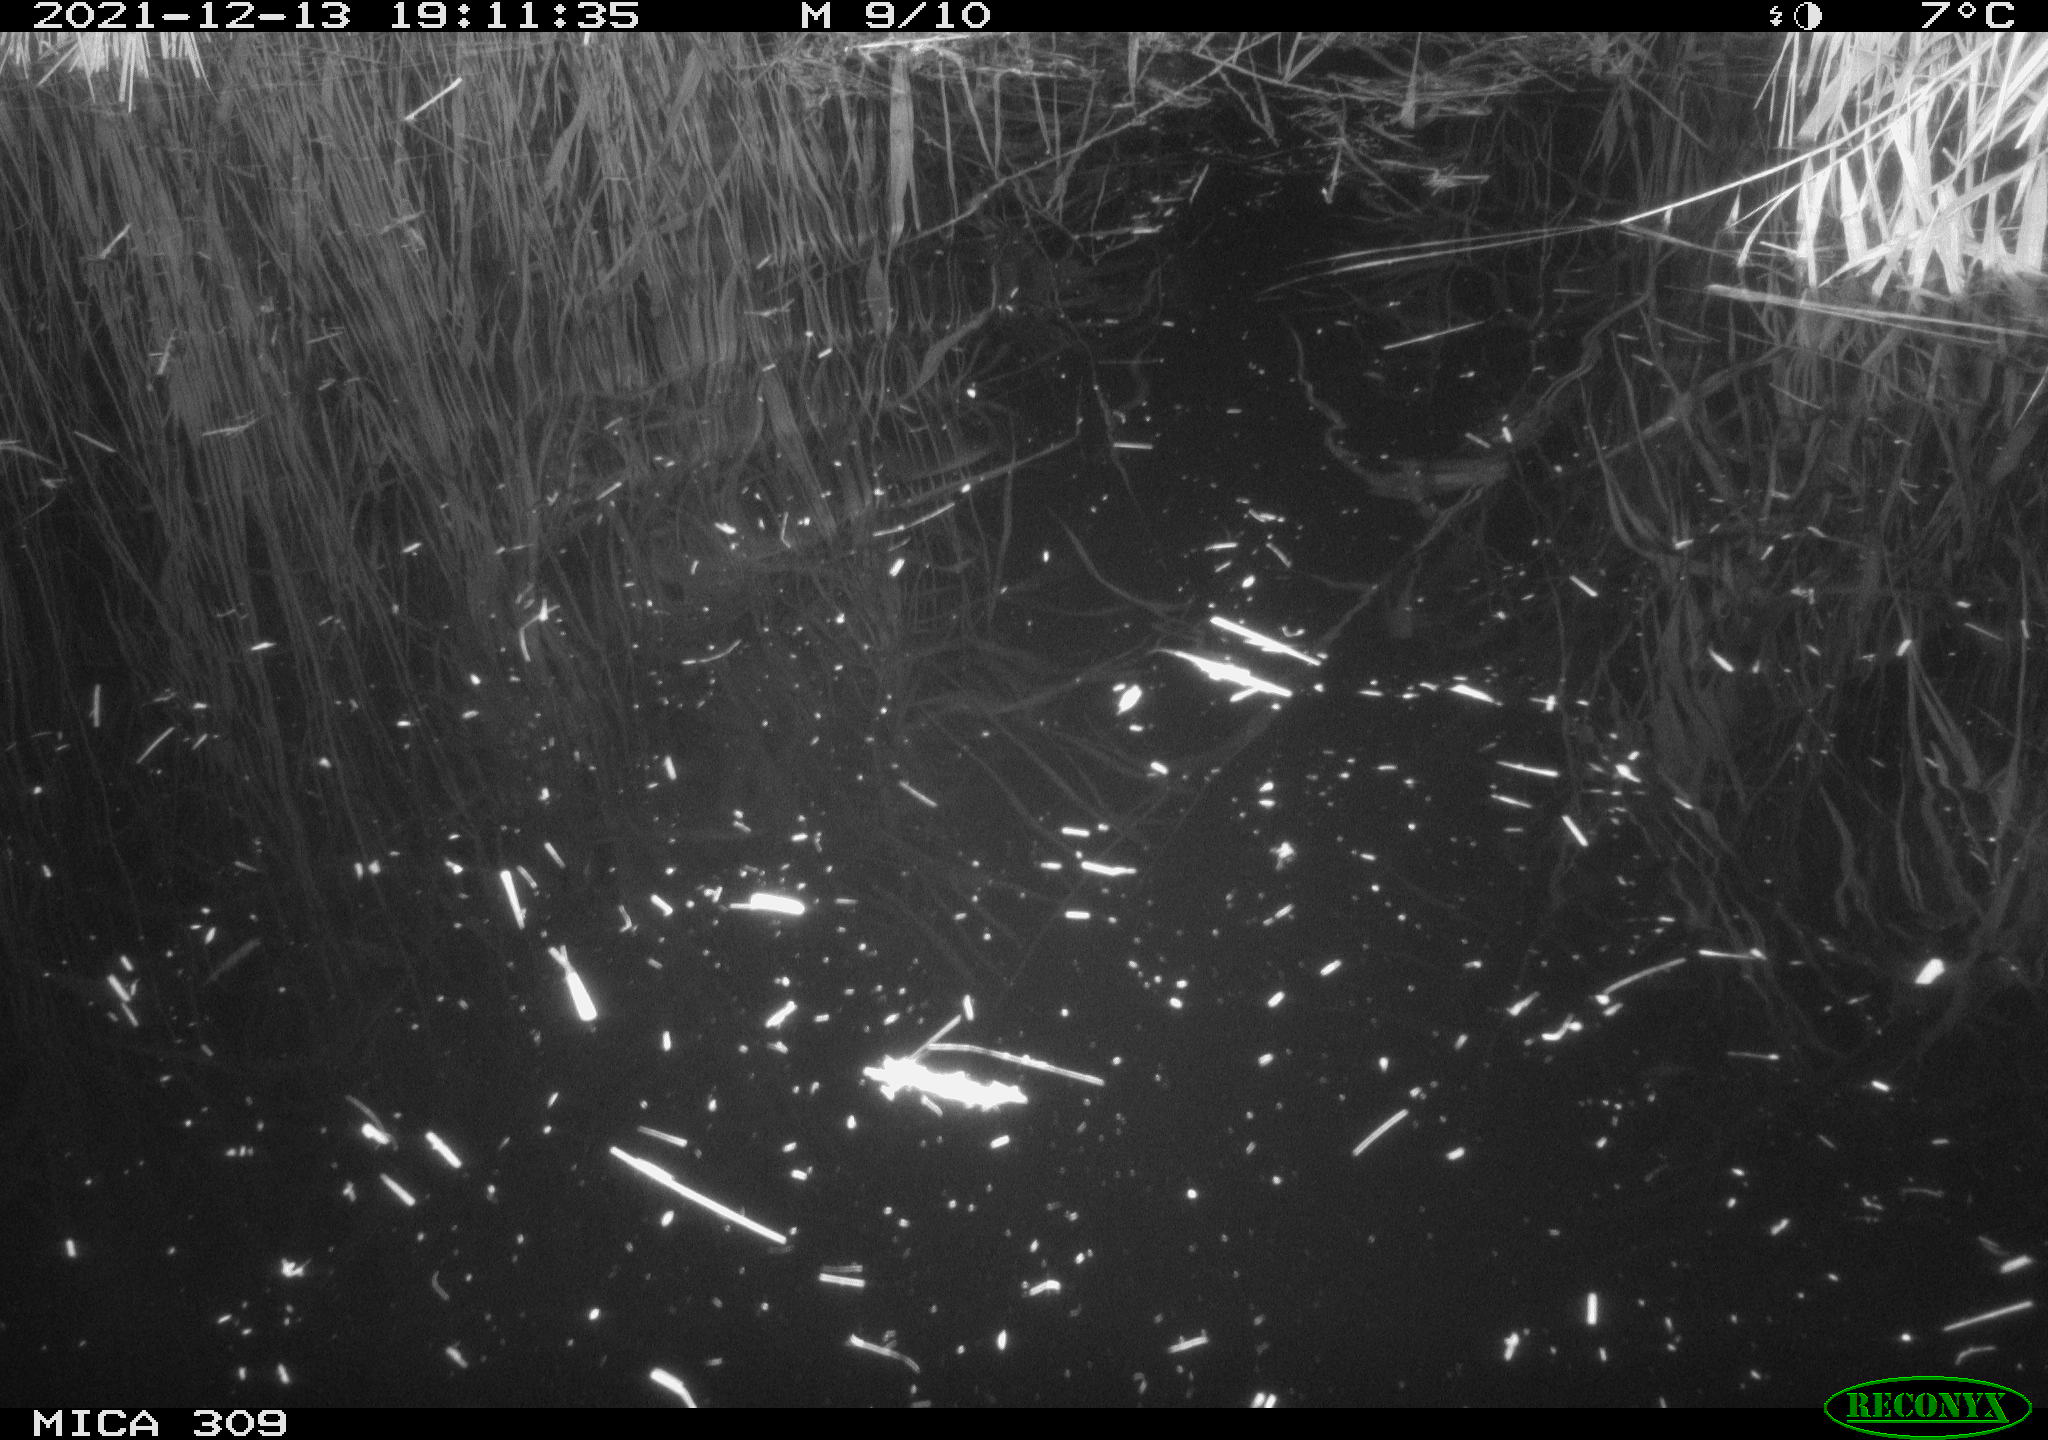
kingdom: Animalia
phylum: Chordata
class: Mammalia
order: Rodentia
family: Muridae
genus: Rattus
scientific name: Rattus norvegicus
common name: Brown rat
